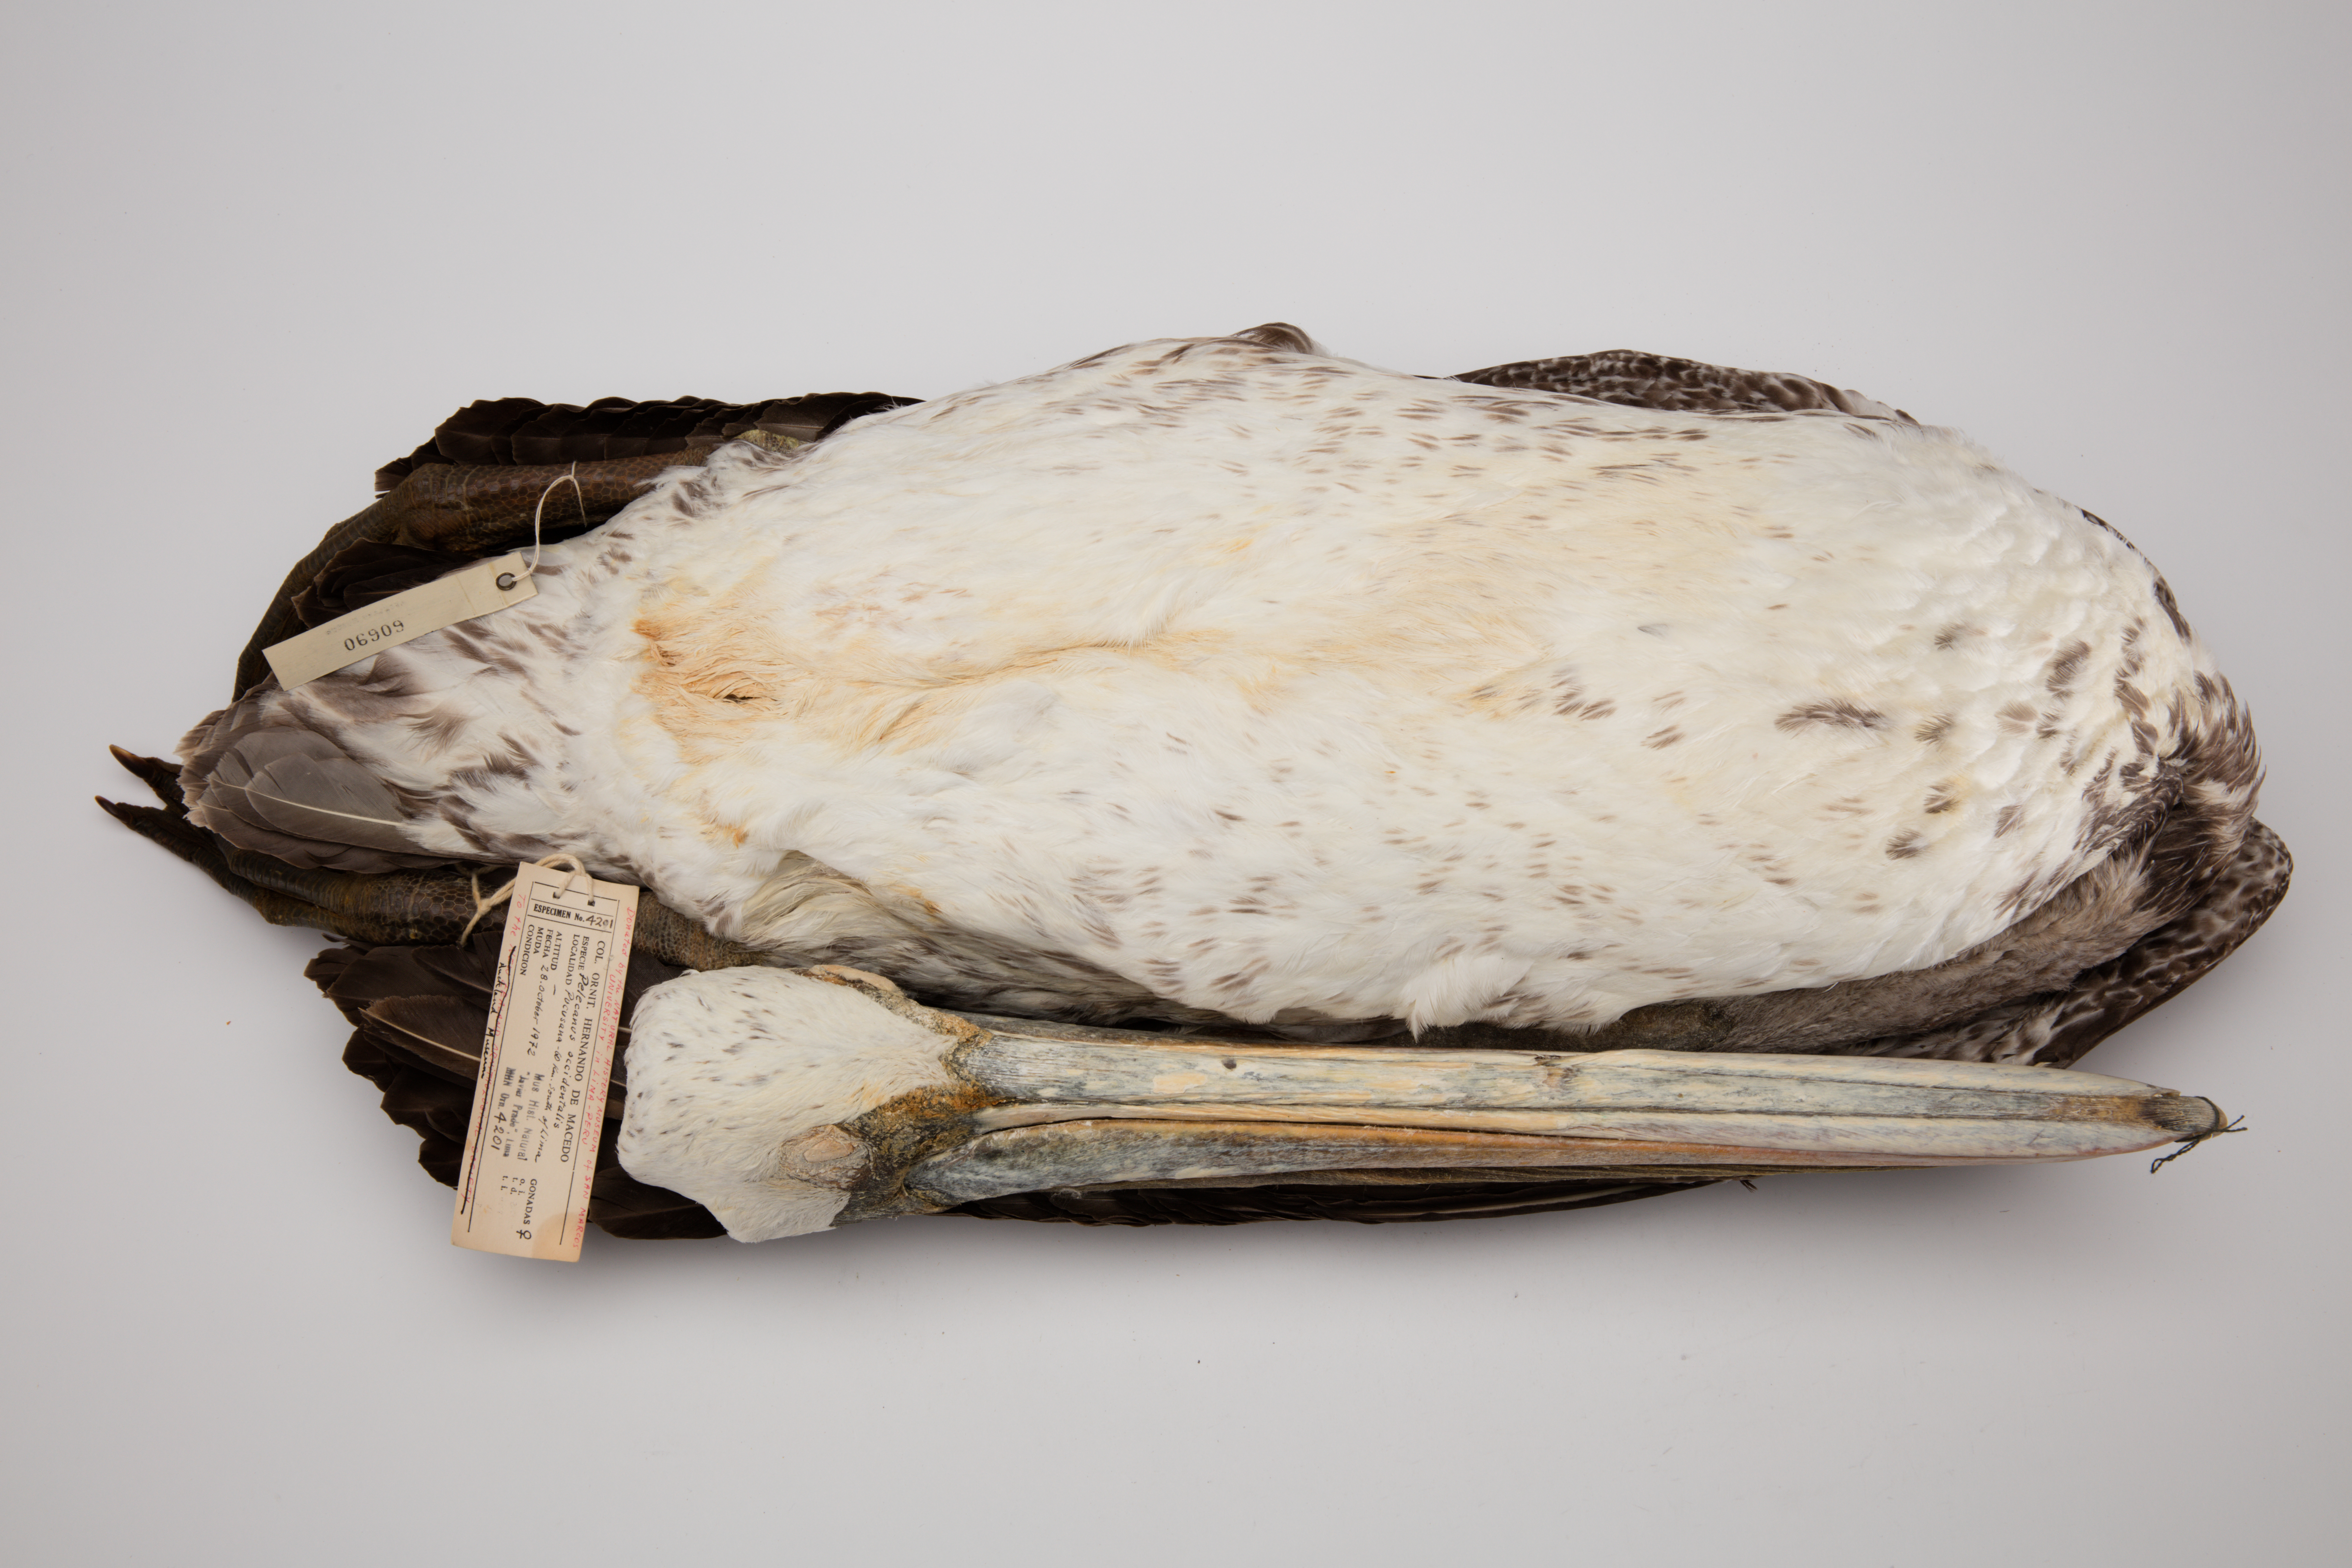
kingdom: Animalia
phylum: Chordata
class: Aves
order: Pelecaniformes
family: Pelecanidae
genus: Pelecanus
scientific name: Pelecanus occidentalis
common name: Brown pelican
